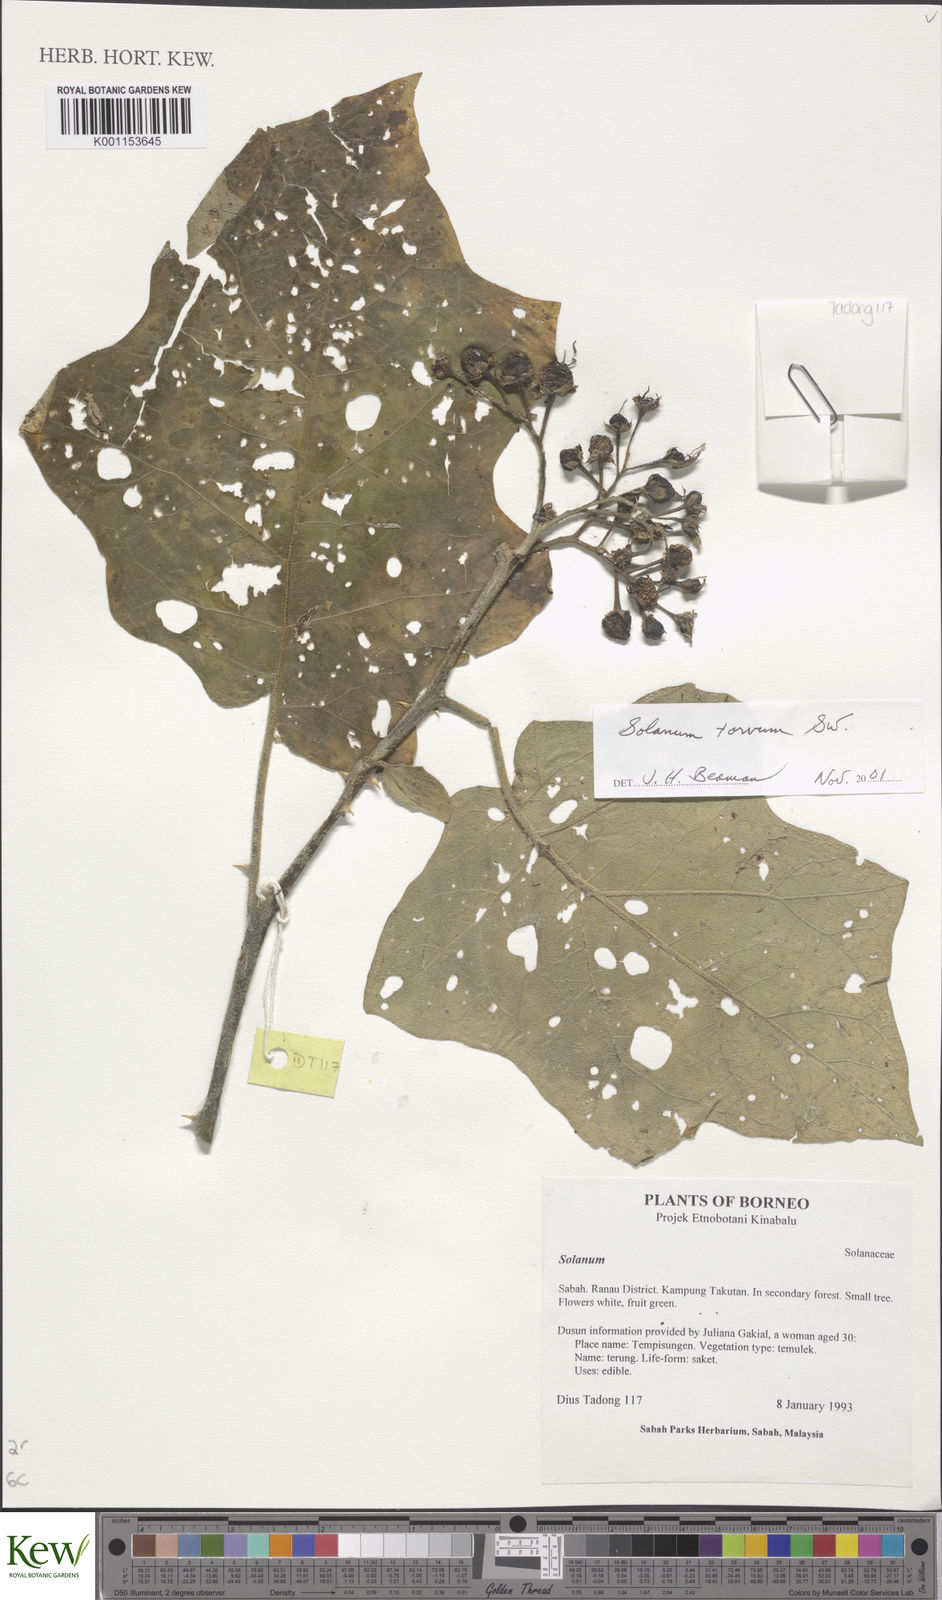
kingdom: Plantae
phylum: Tracheophyta
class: Magnoliopsida
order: Solanales
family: Solanaceae
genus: Solanum
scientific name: Solanum torvum
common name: Turkey berry
